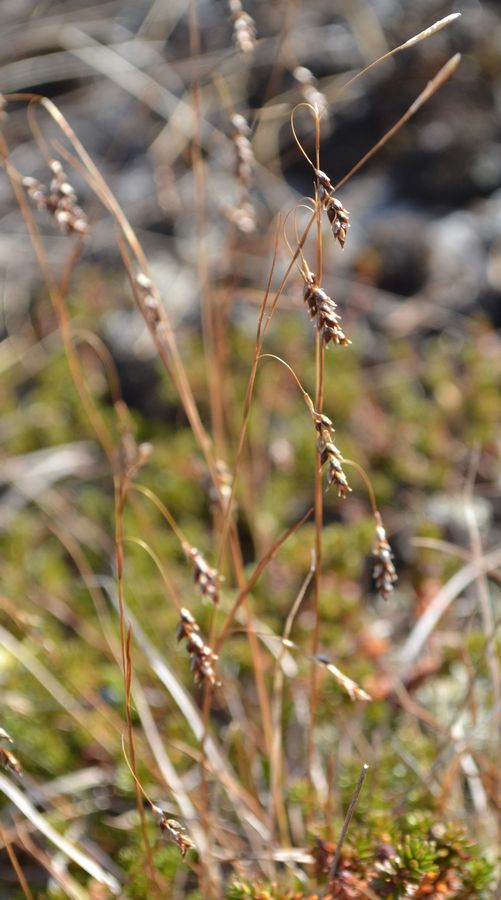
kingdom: Plantae
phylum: Tracheophyta
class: Liliopsida
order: Poales
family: Cyperaceae
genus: Carex
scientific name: Carex capillaris
